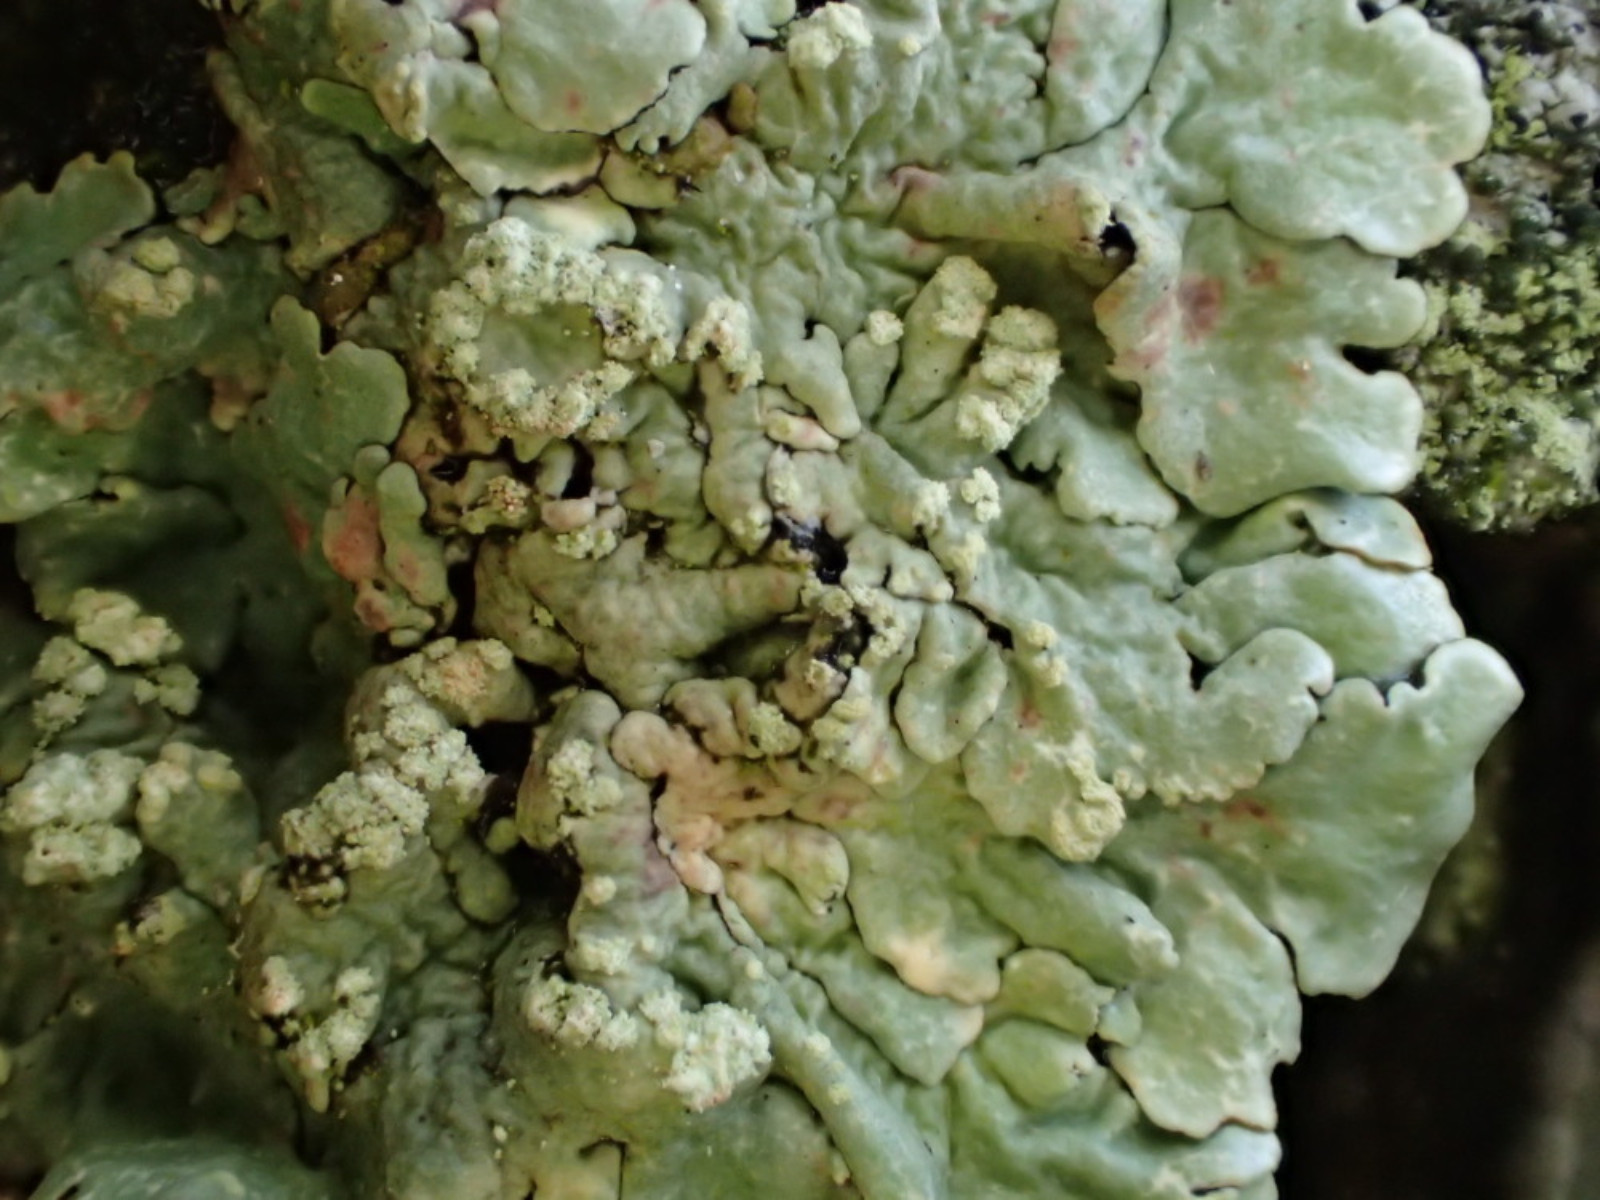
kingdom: Fungi
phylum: Ascomycota
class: Lecanoromycetes
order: Lecanorales
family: Parmeliaceae
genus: Flavoparmelia
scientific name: Flavoparmelia soredians
